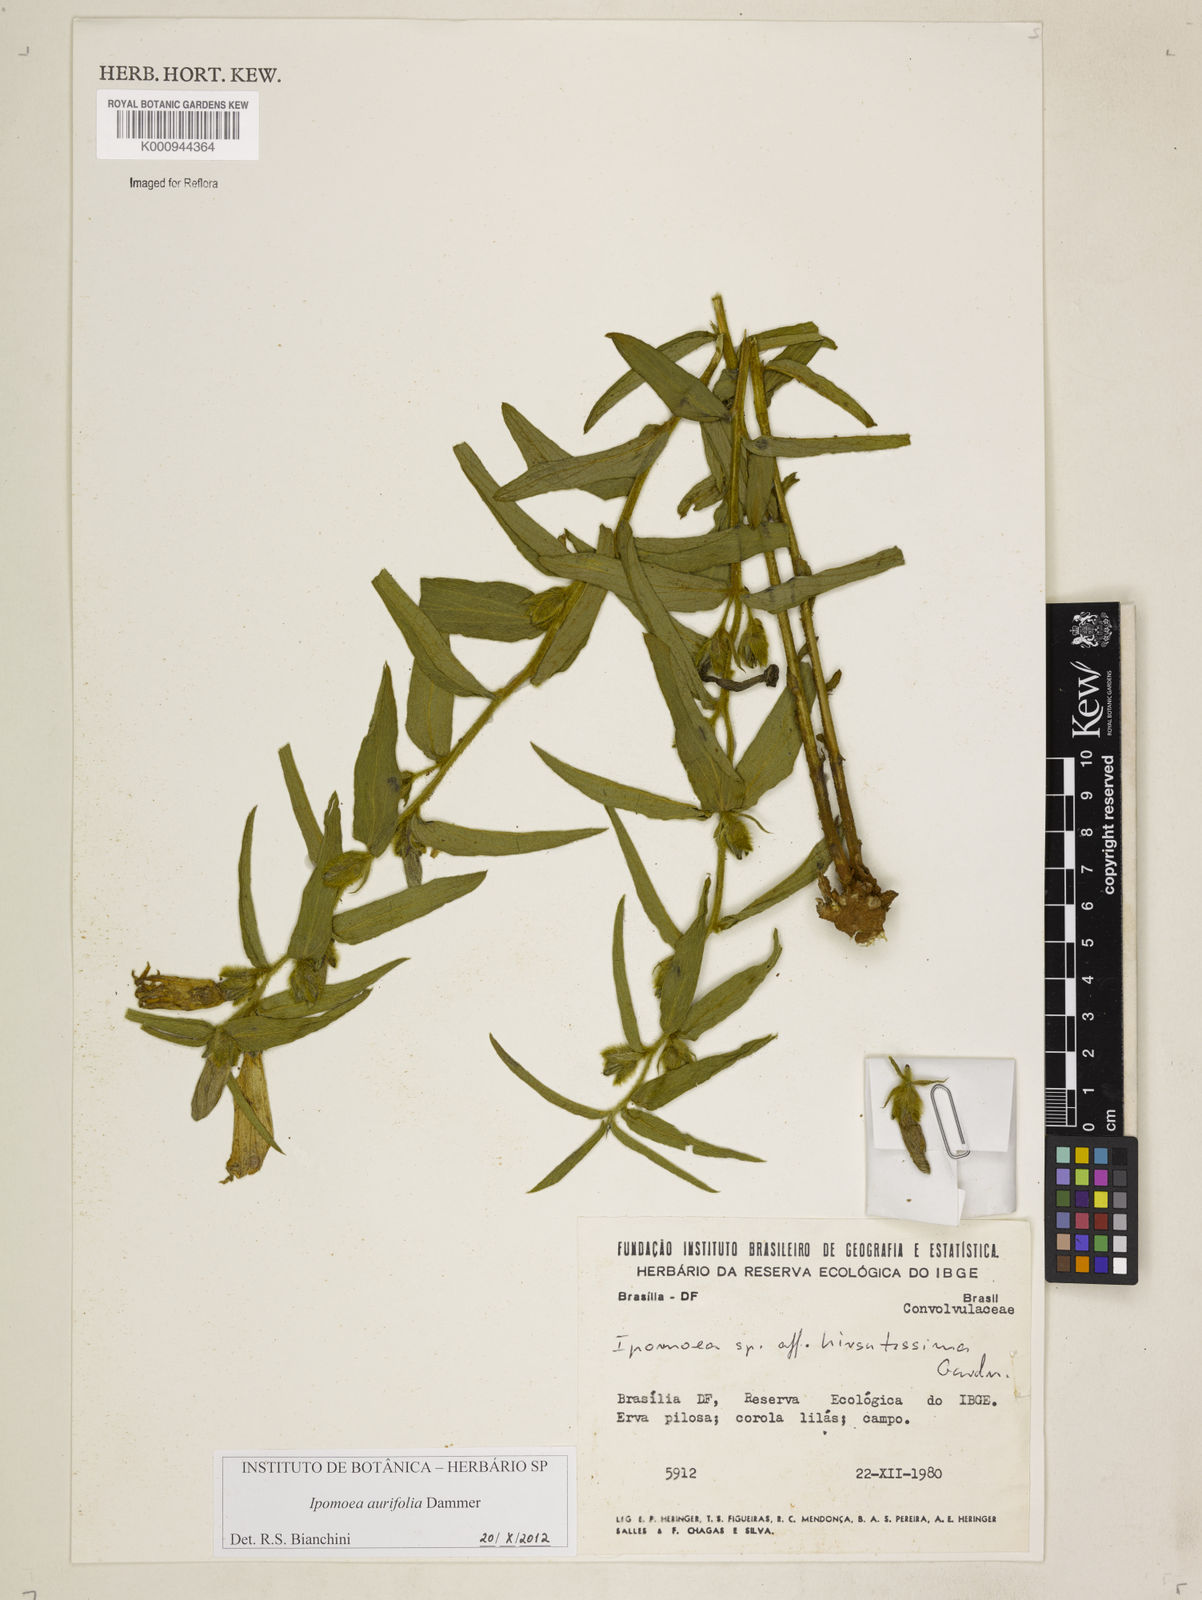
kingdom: Plantae
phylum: Tracheophyta
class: Magnoliopsida
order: Solanales
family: Convolvulaceae
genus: Ipomoea
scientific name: Ipomoea aurifolia
